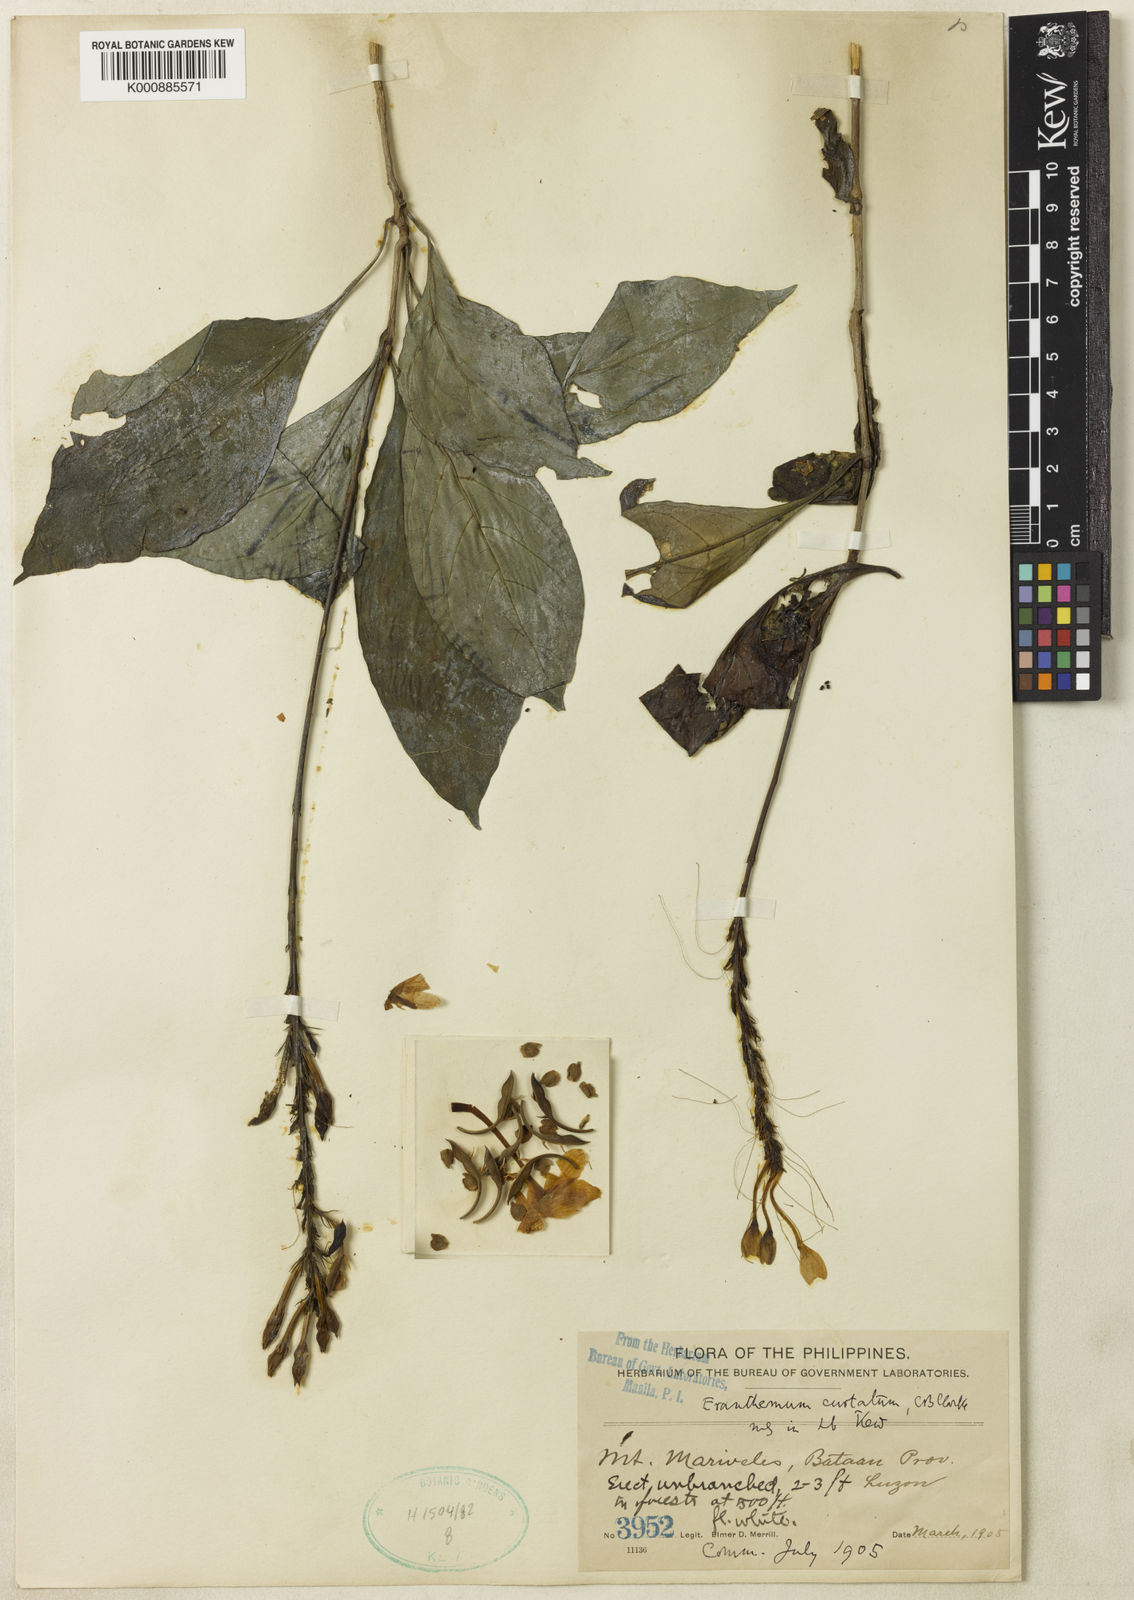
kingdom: Plantae
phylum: Tracheophyta
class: Magnoliopsida
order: Lamiales
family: Acanthaceae
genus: Pseuderanthemum
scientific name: Pseuderanthemum curtatum
